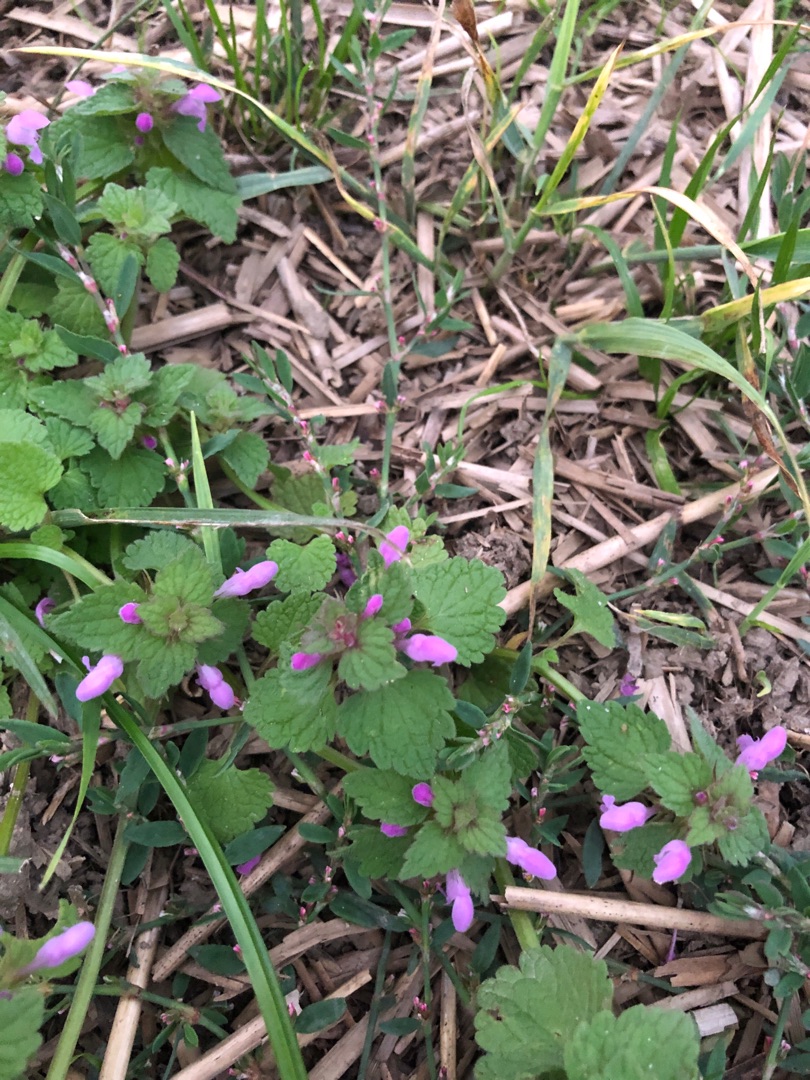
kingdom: Plantae
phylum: Tracheophyta
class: Magnoliopsida
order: Lamiales
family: Lamiaceae
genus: Lamium
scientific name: Lamium purpureum
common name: Rød tvetand
